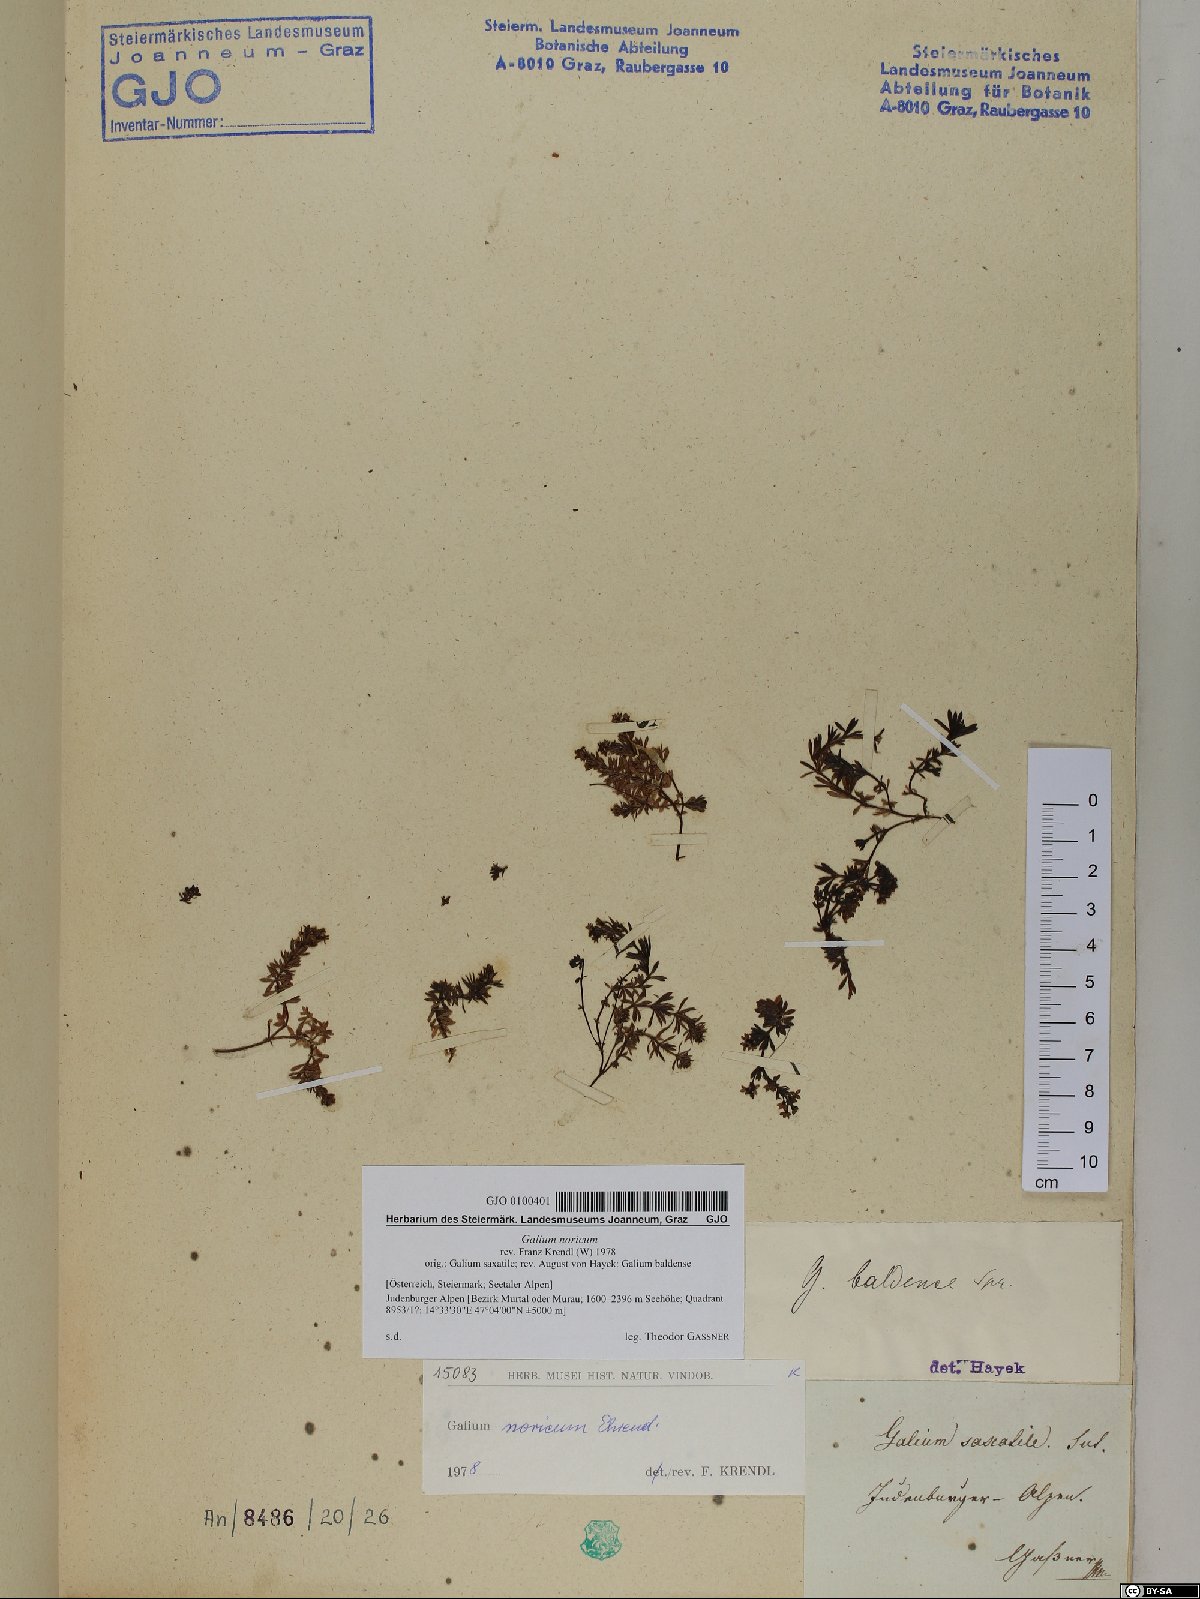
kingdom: Plantae
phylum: Tracheophyta
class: Magnoliopsida
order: Gentianales
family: Rubiaceae
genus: Galium
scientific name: Galium noricum
